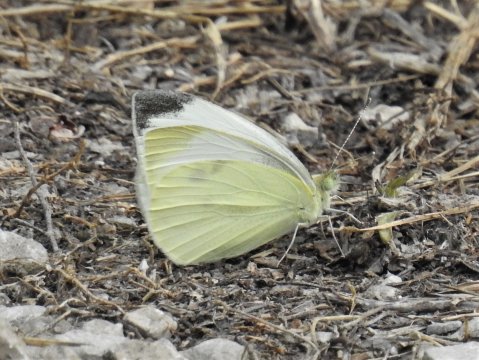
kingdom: Animalia
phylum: Arthropoda
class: Insecta
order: Lepidoptera
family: Pieridae
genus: Pieris
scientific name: Pieris rapae
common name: Cabbage White
